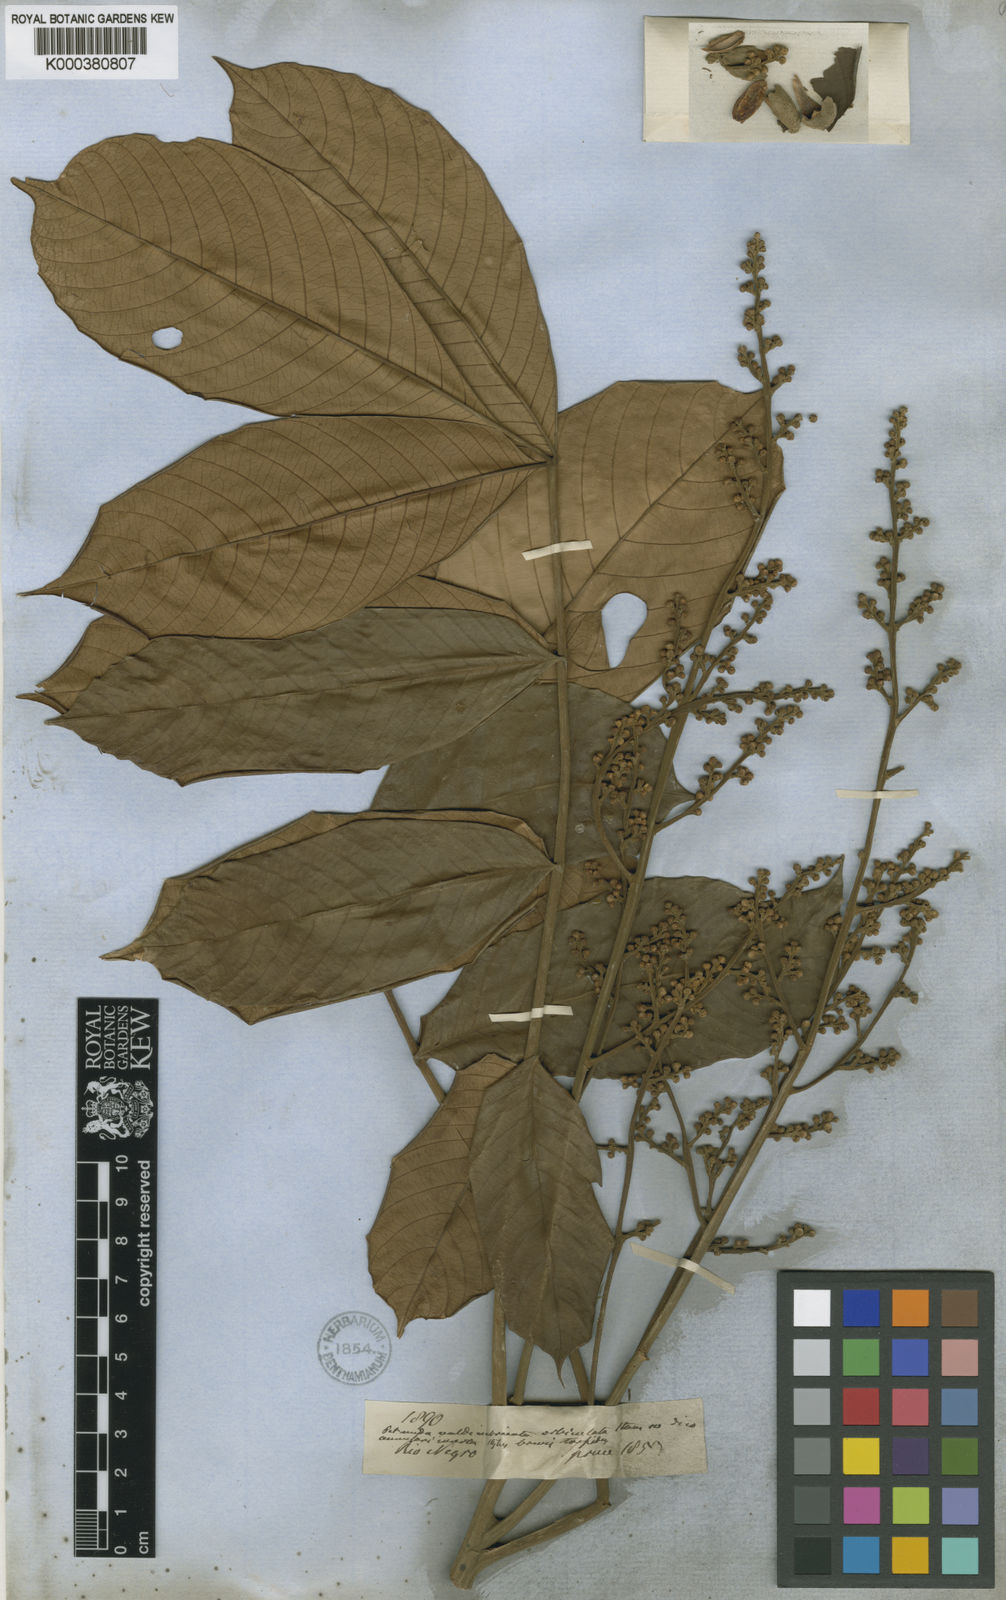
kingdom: Plantae
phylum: Tracheophyta
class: Magnoliopsida
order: Sapindales
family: Meliaceae
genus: Trichilia
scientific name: Trichilia septentrionalis
